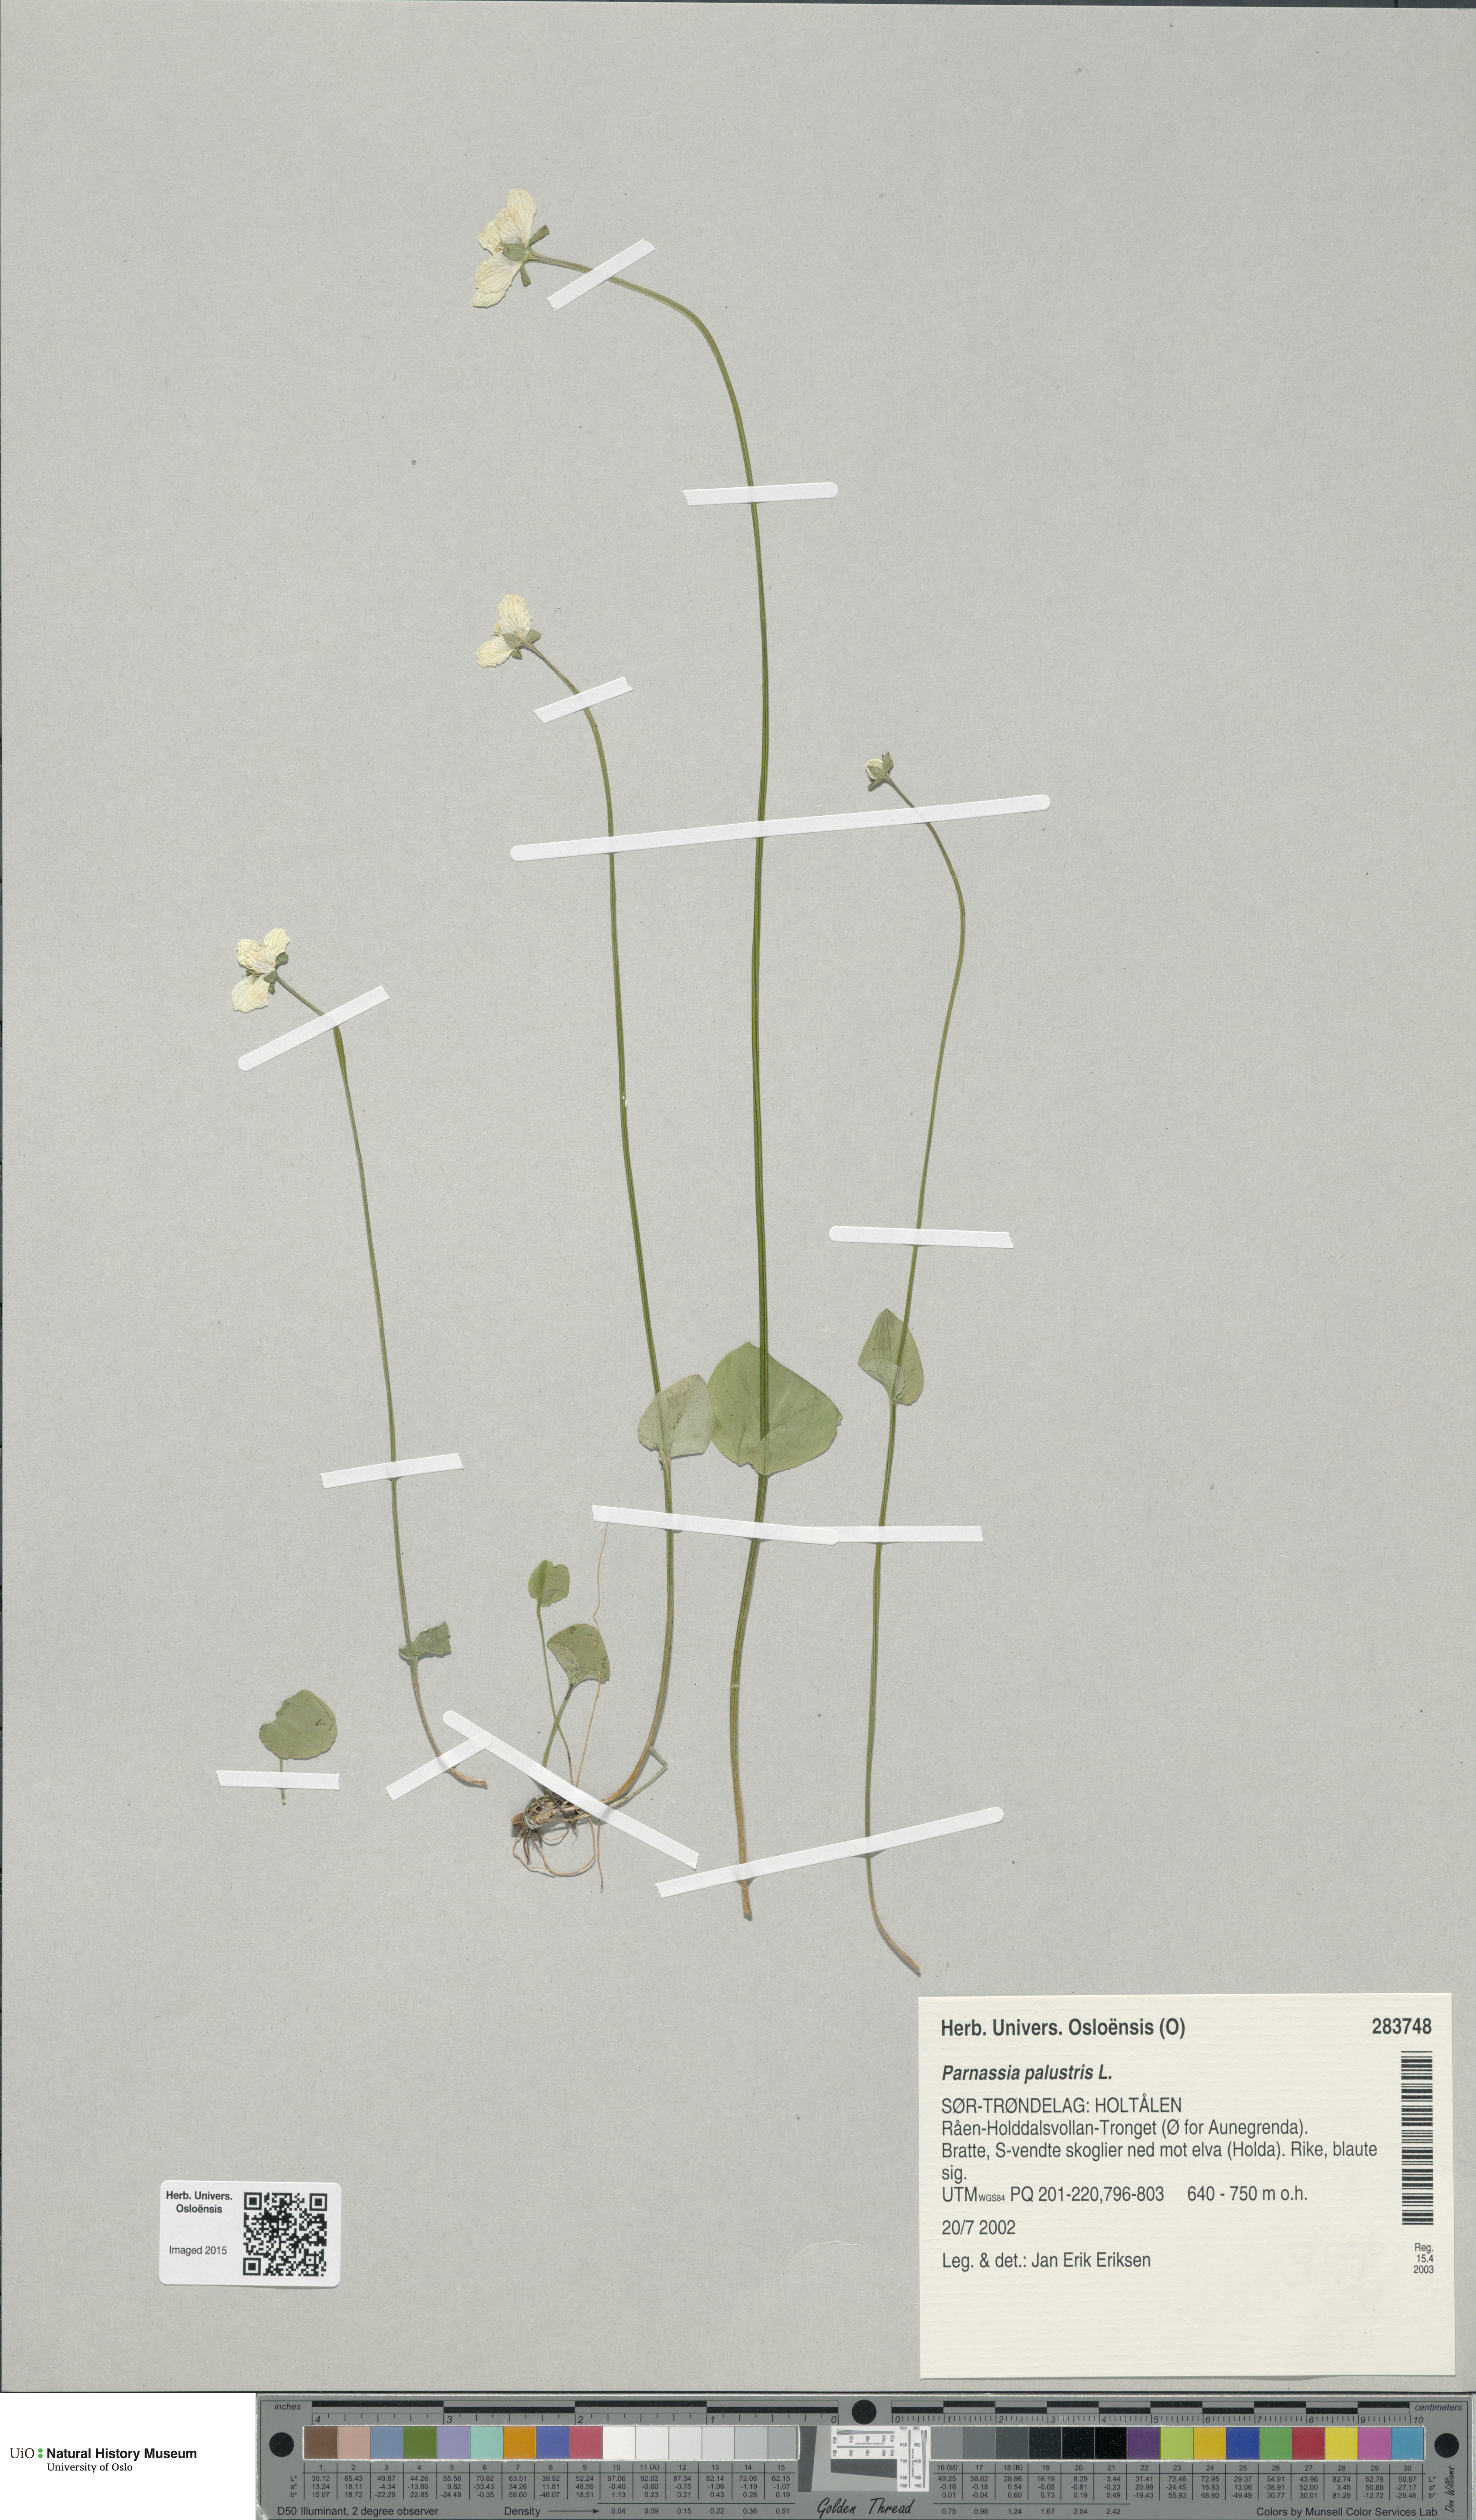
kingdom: Plantae
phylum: Tracheophyta
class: Magnoliopsida
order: Celastrales
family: Parnassiaceae
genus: Parnassia
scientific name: Parnassia palustris
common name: Grass-of-parnassus
